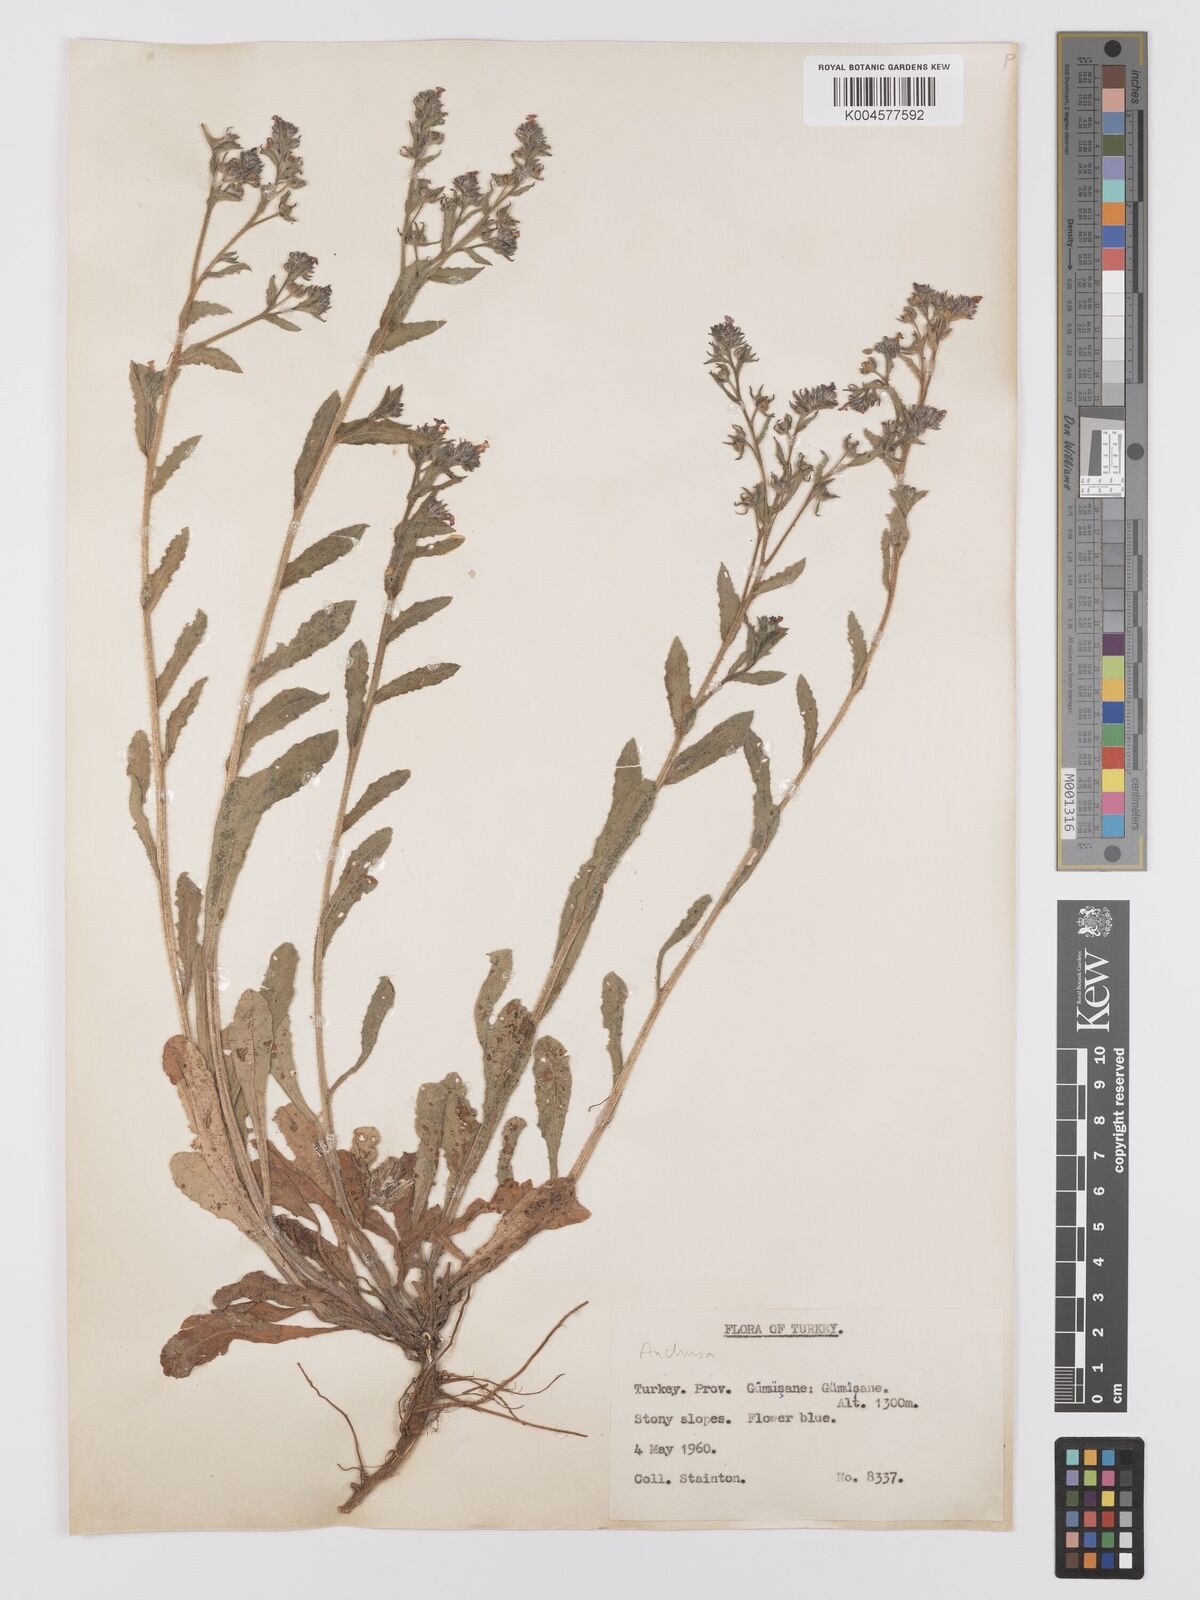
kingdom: Plantae
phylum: Tracheophyta
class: Magnoliopsida
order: Boraginales
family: Boraginaceae
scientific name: Boraginaceae
